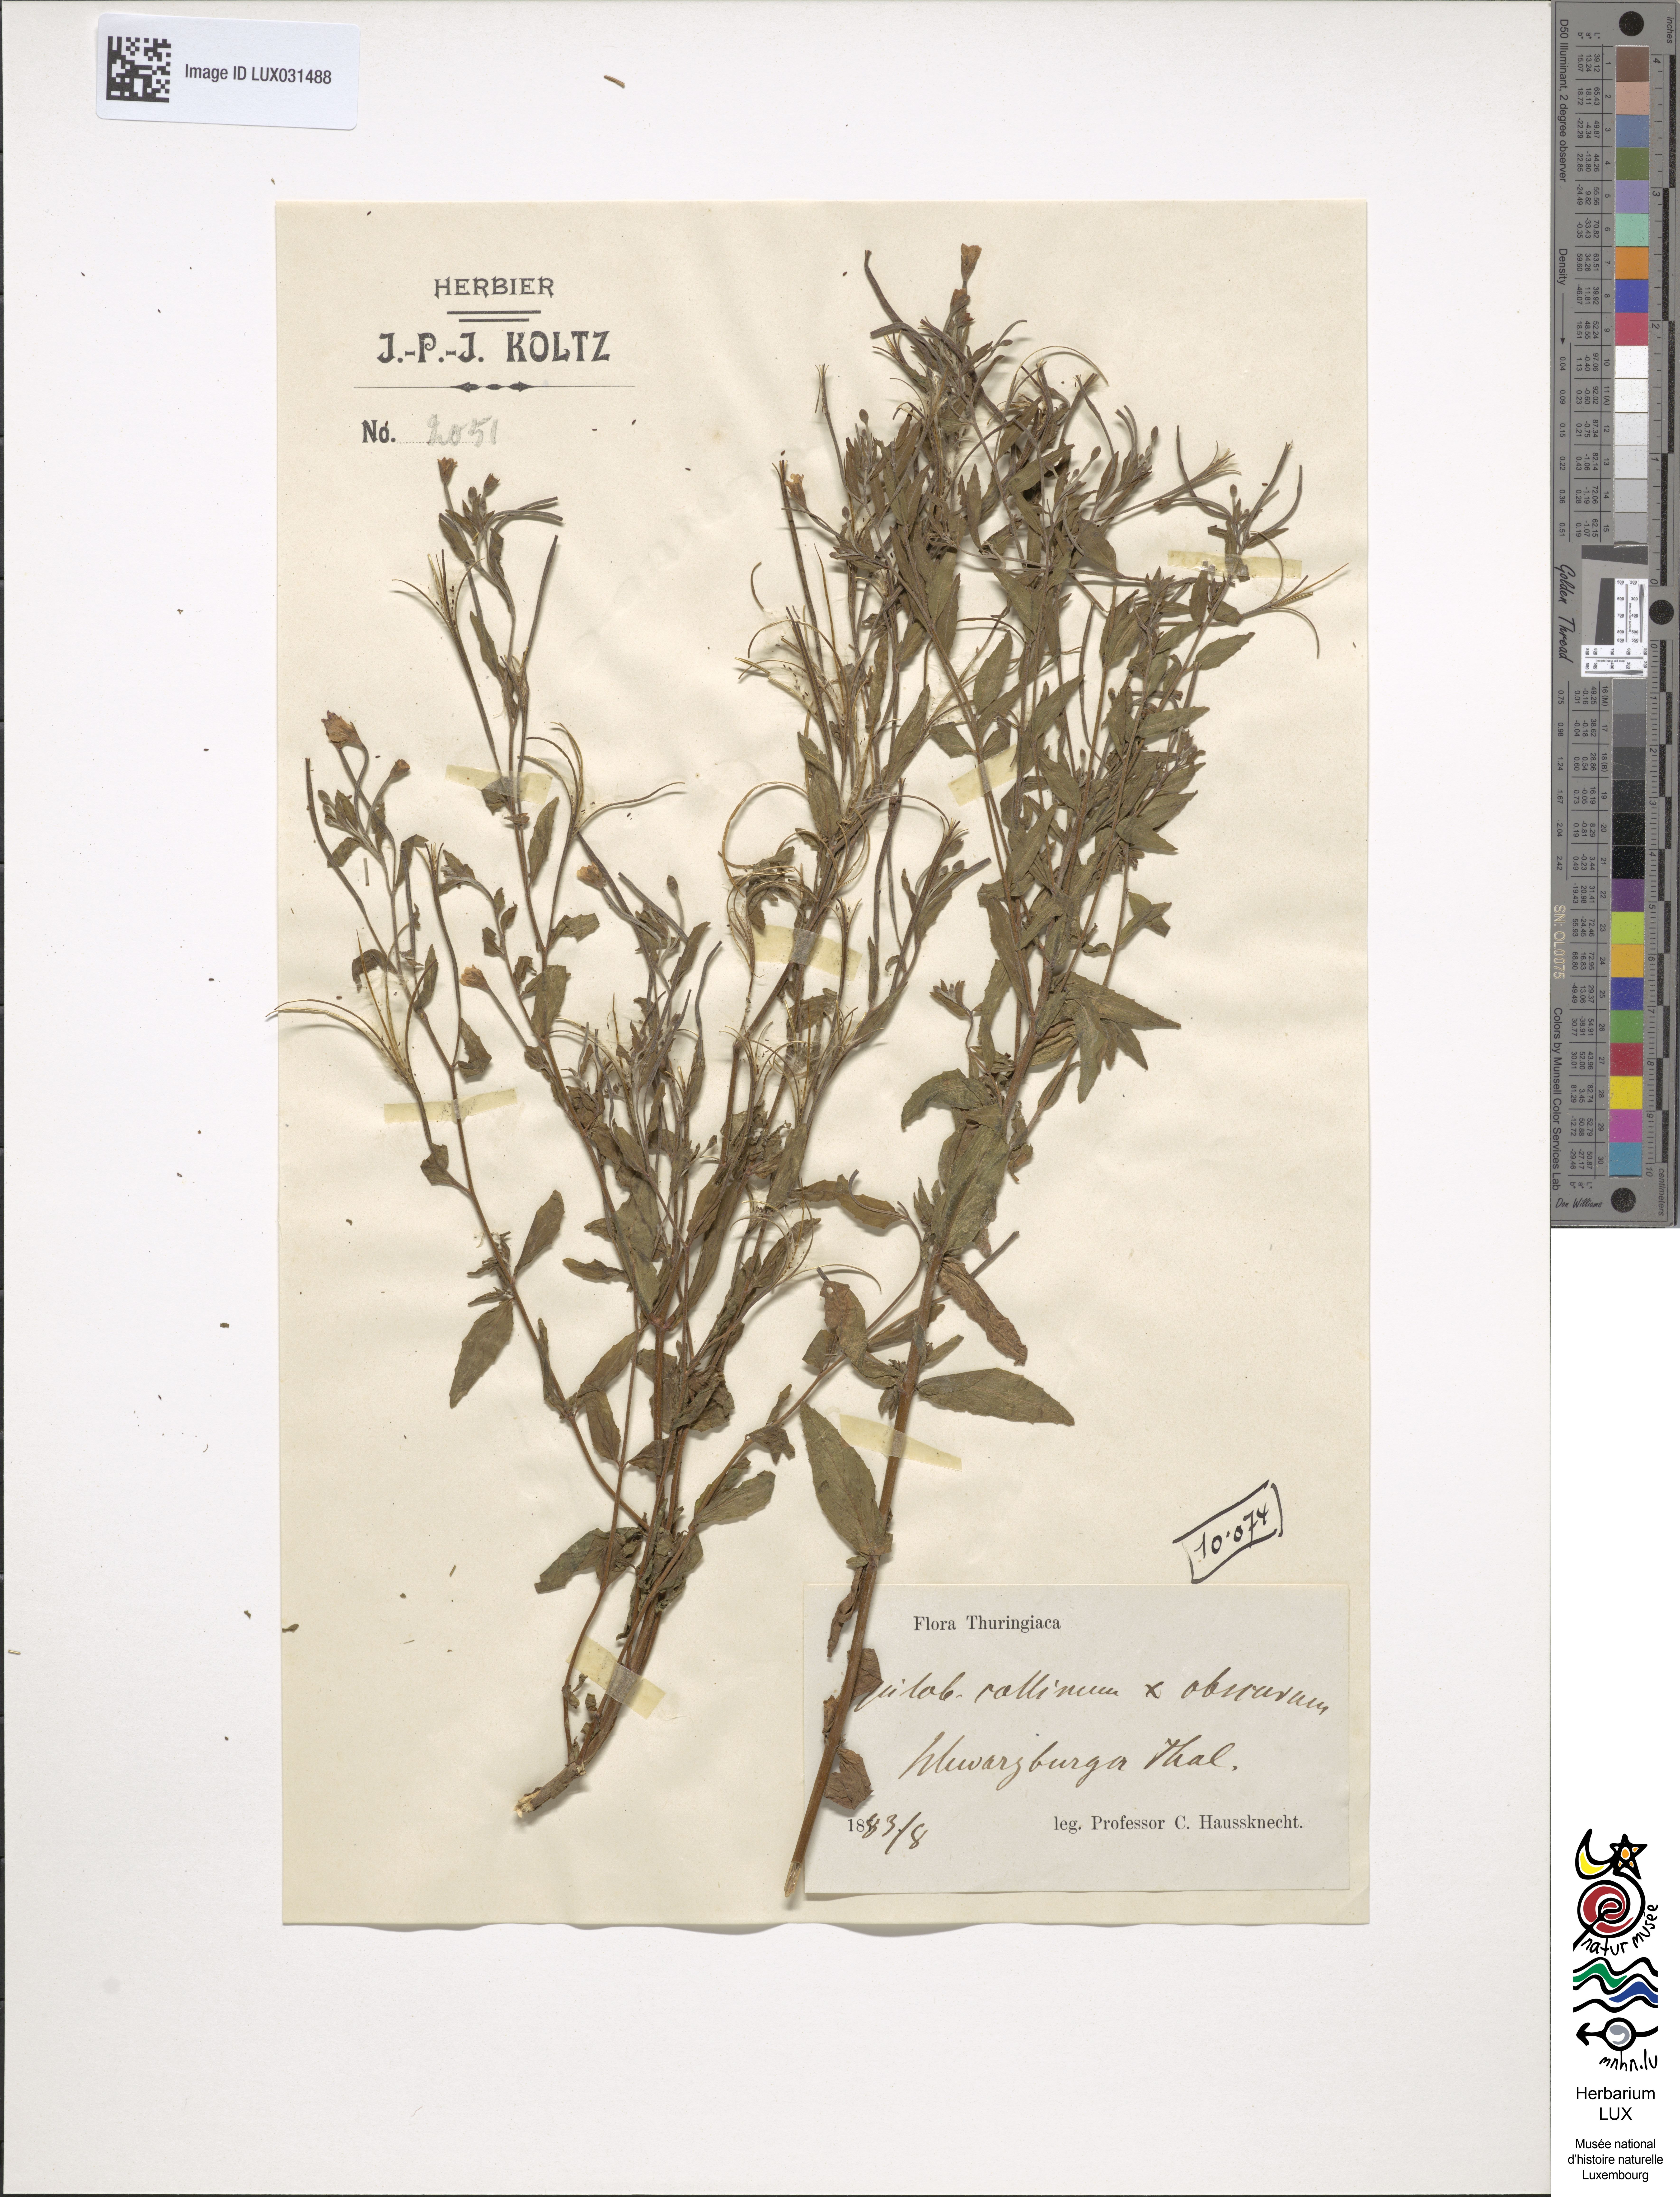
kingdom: Plantae
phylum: Tracheophyta
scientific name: Tracheophyta
